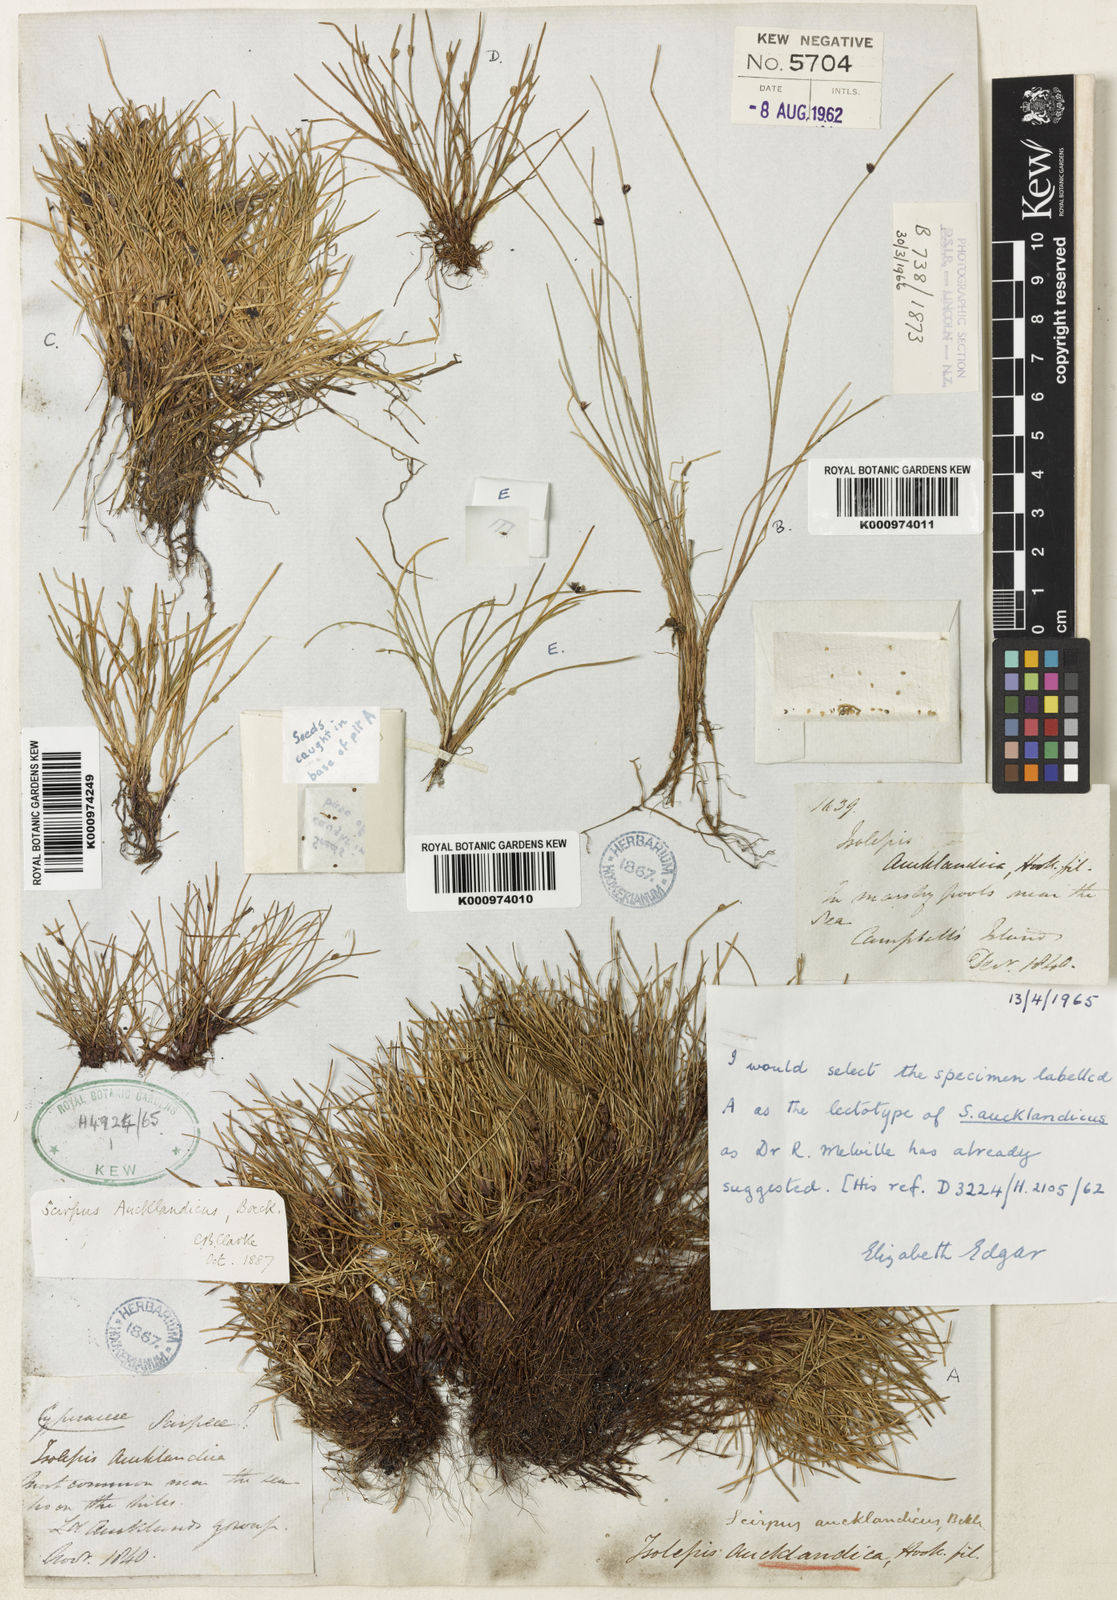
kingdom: Plantae
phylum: Tracheophyta
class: Liliopsida
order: Poales
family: Cyperaceae
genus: Isolepis
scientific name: Isolepis aucklandica
